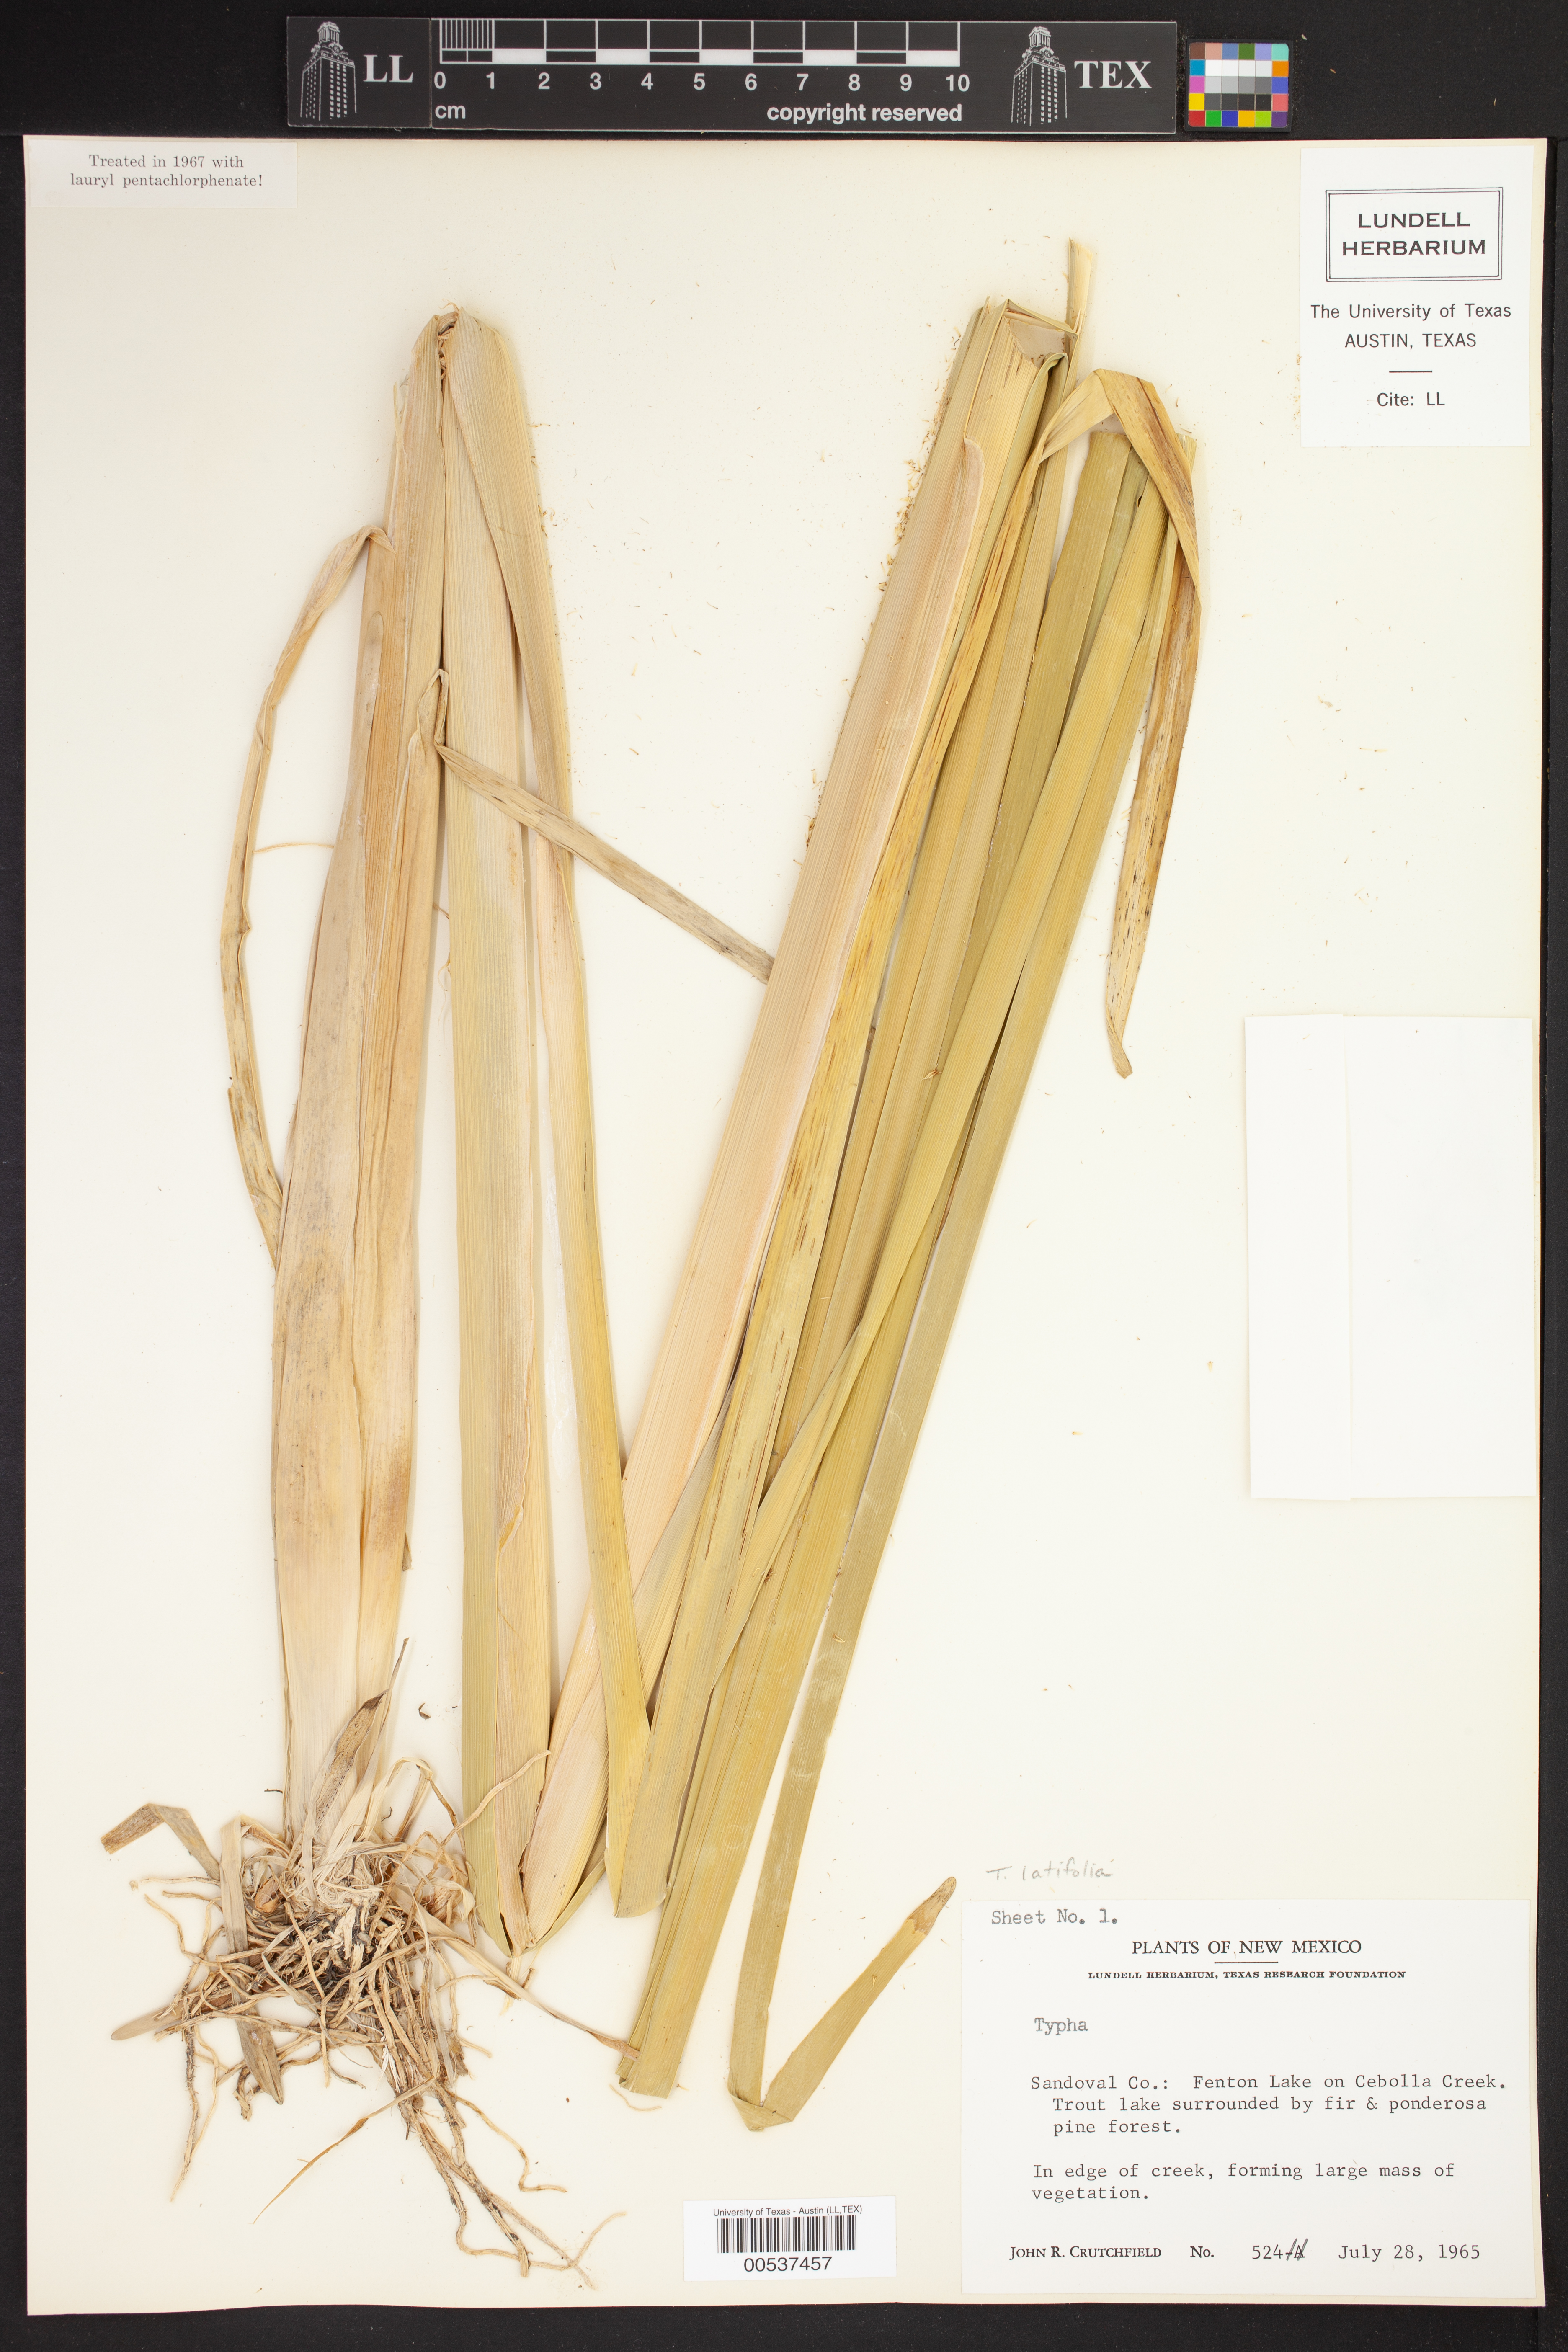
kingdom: Plantae
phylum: Tracheophyta
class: Liliopsida
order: Poales
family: Typhaceae
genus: Typha
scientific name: Typha latifolia
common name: Broadleaf cattail
